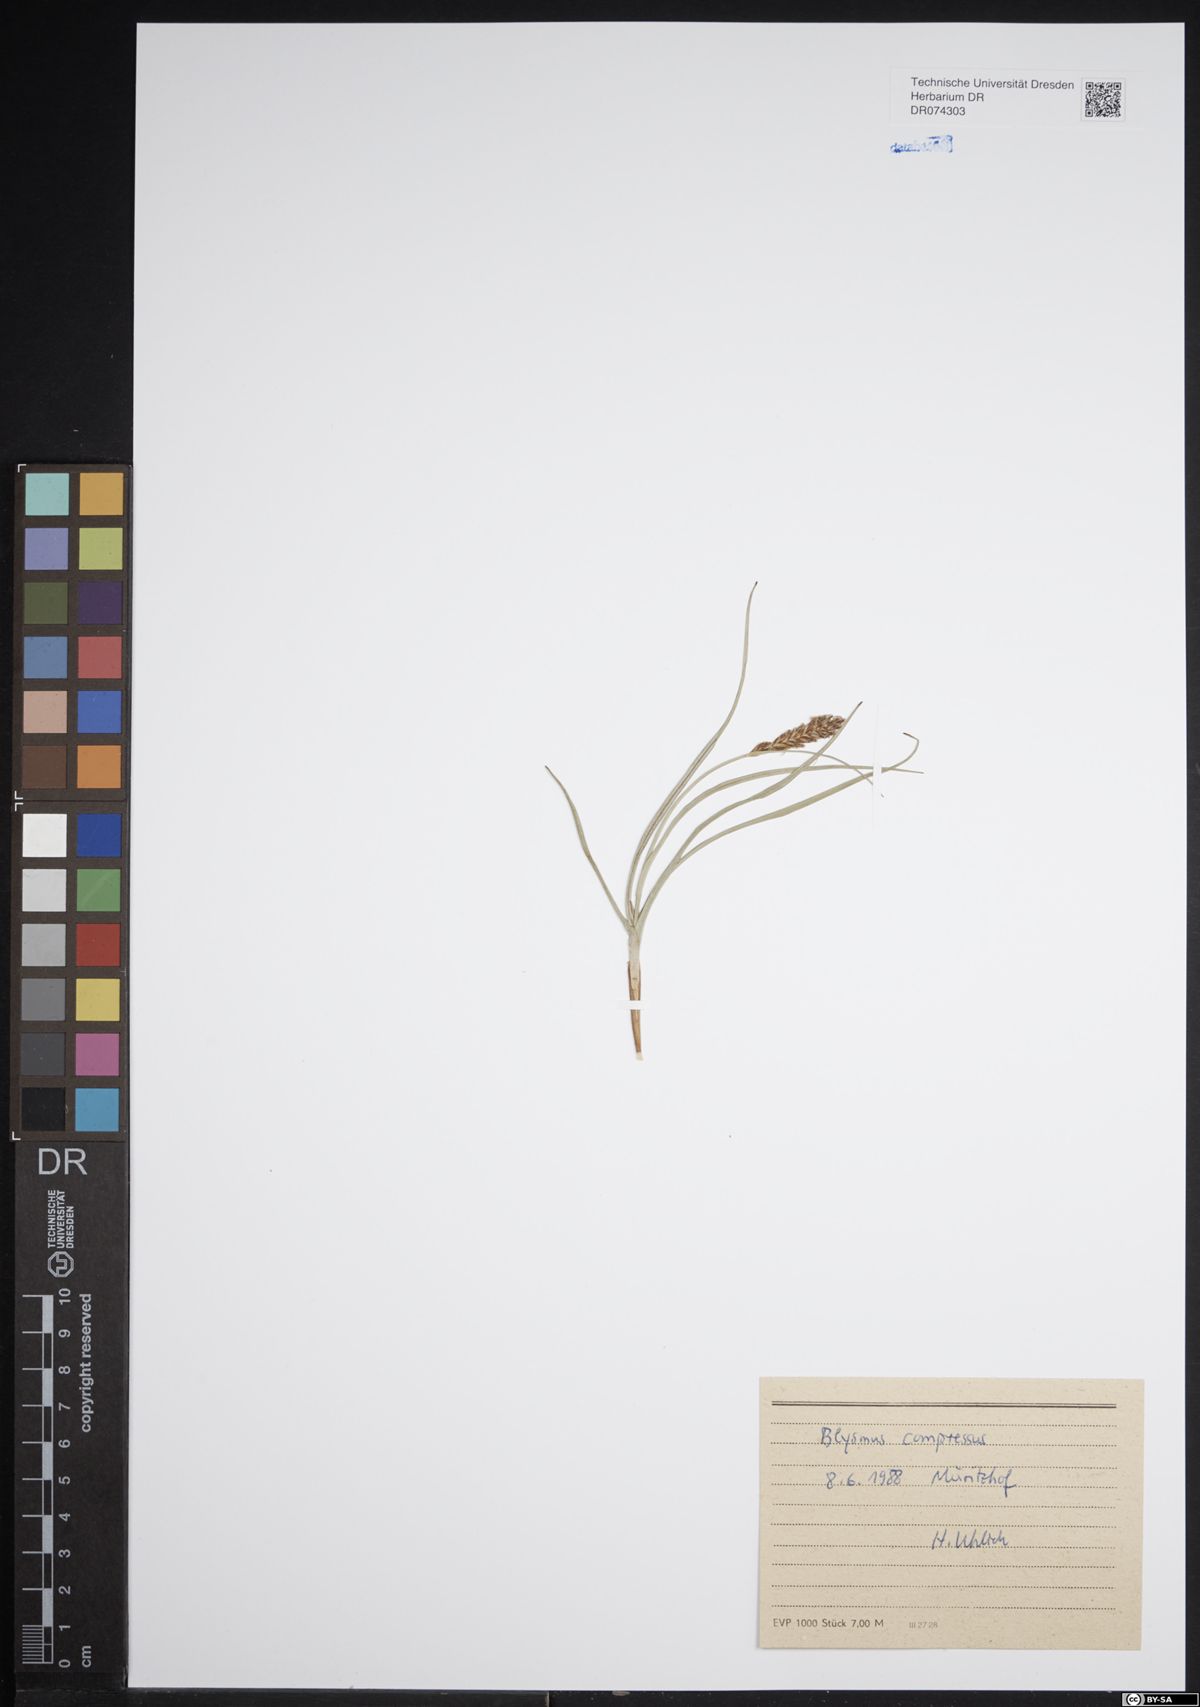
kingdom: Plantae
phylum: Tracheophyta
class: Liliopsida
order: Poales
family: Cyperaceae
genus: Blysmus
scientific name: Blysmus compressus
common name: Flat-sedge
